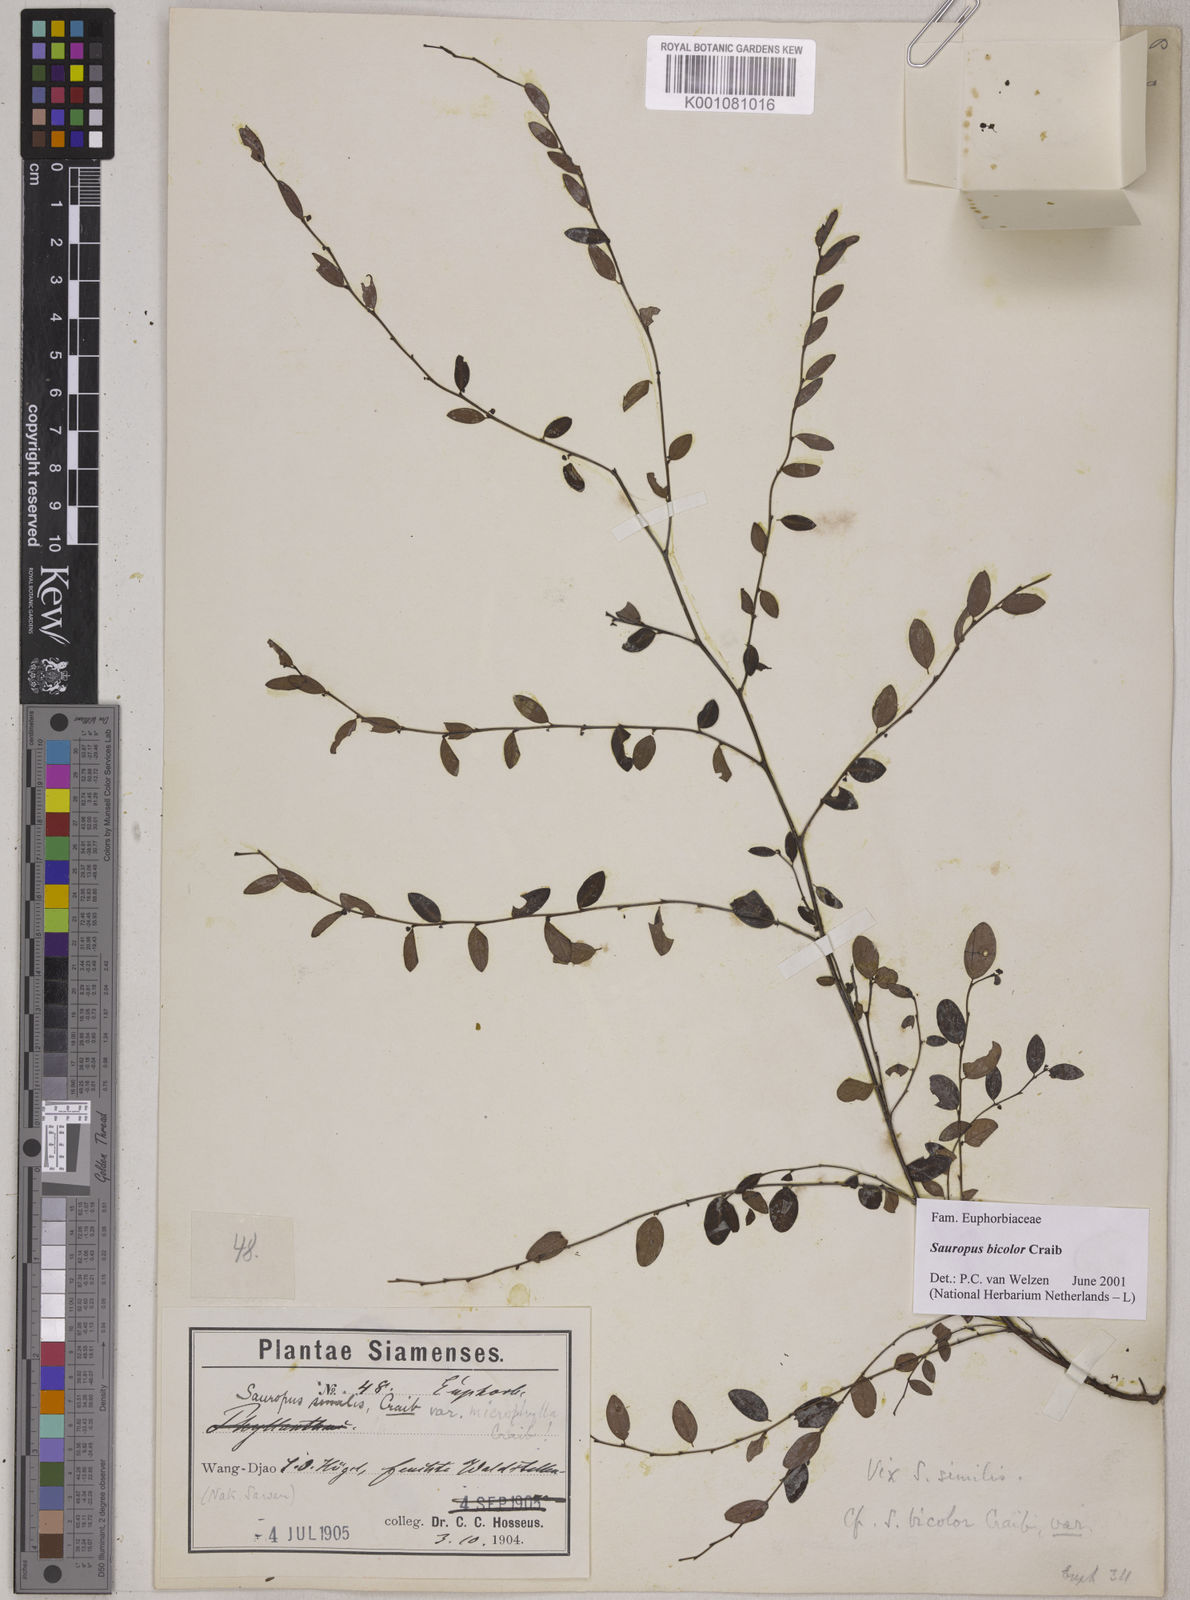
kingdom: Plantae
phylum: Tracheophyta
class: Magnoliopsida
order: Malpighiales
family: Phyllanthaceae
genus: Breynia
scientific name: Breynia bicolor
